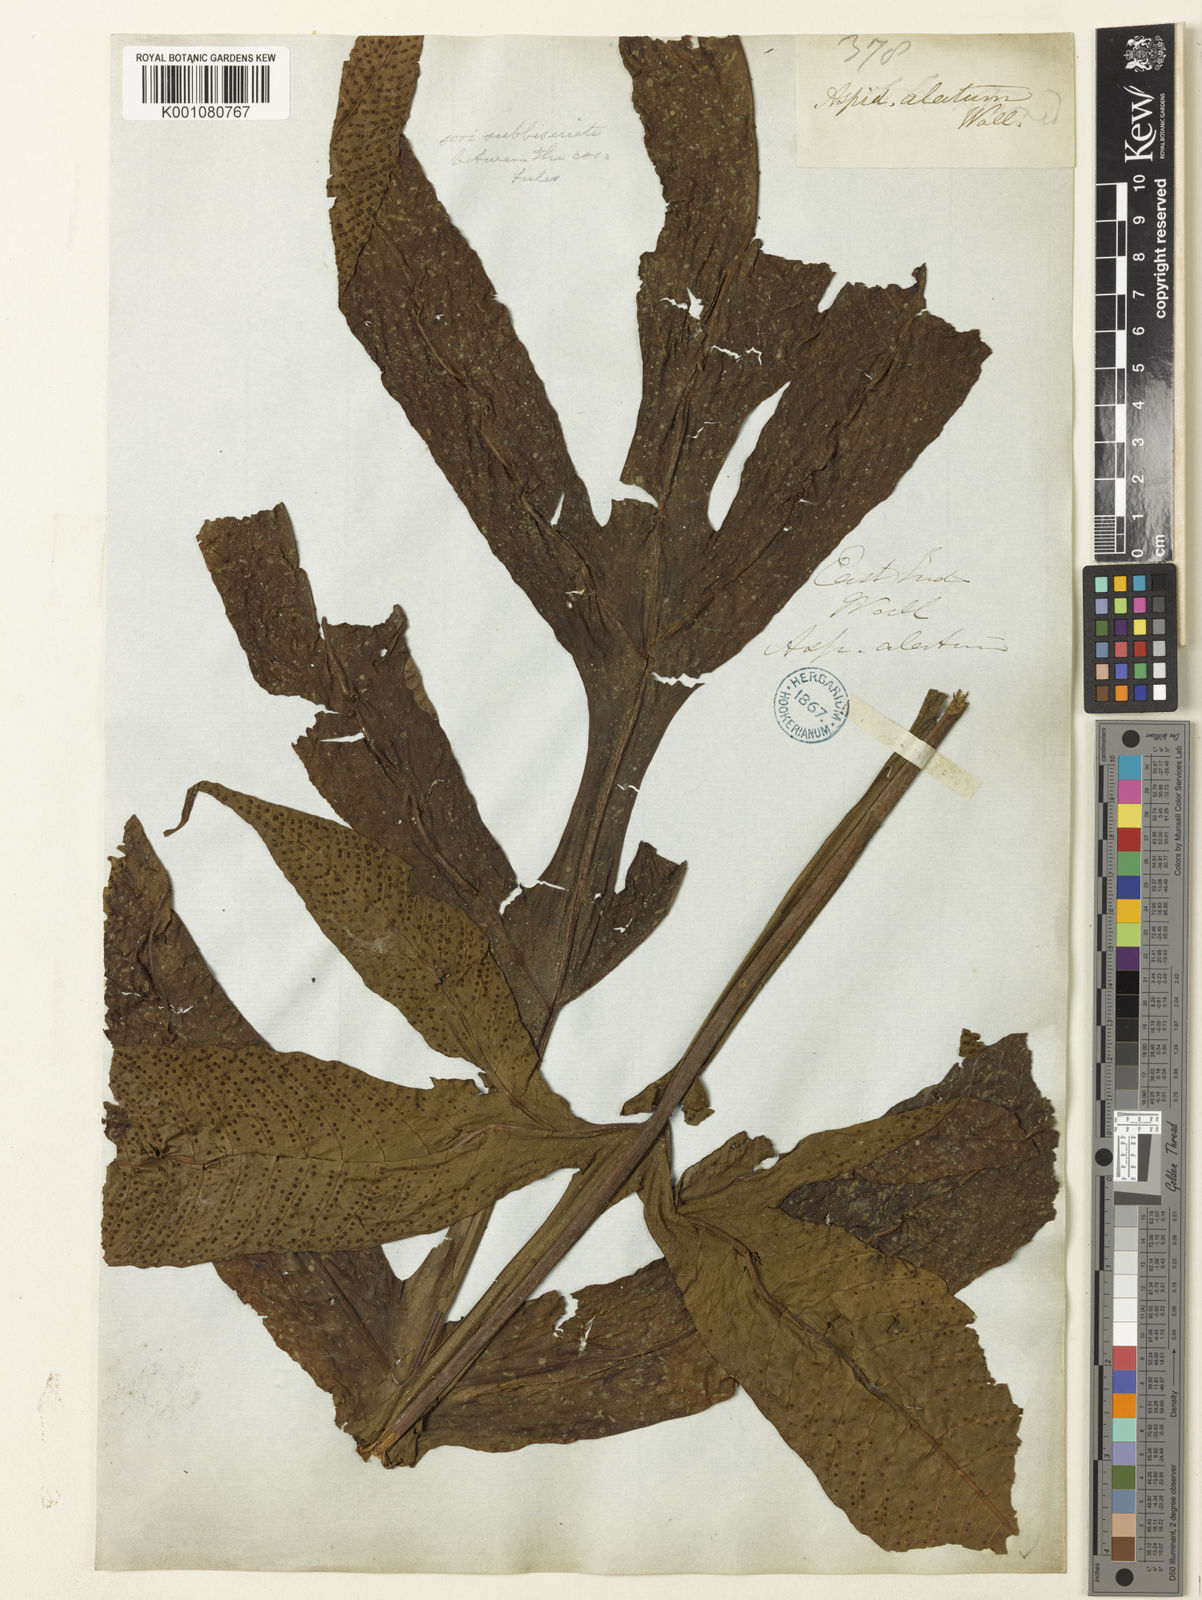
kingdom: Plantae
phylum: Tracheophyta
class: Polypodiopsida
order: Polypodiales
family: Tectariaceae
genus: Tectaria
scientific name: Tectaria vasta
